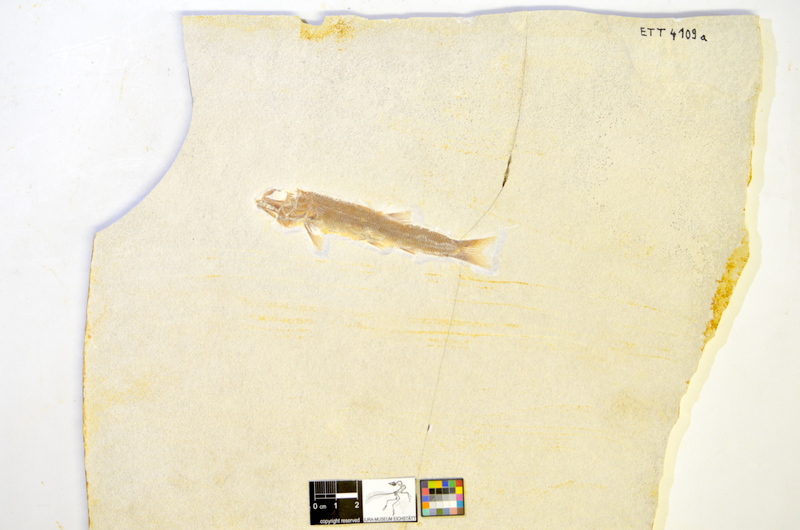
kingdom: Animalia
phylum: Chordata
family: Ophiopsiellidae
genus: Ophiopsis
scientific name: Ophiopsis muensteri
